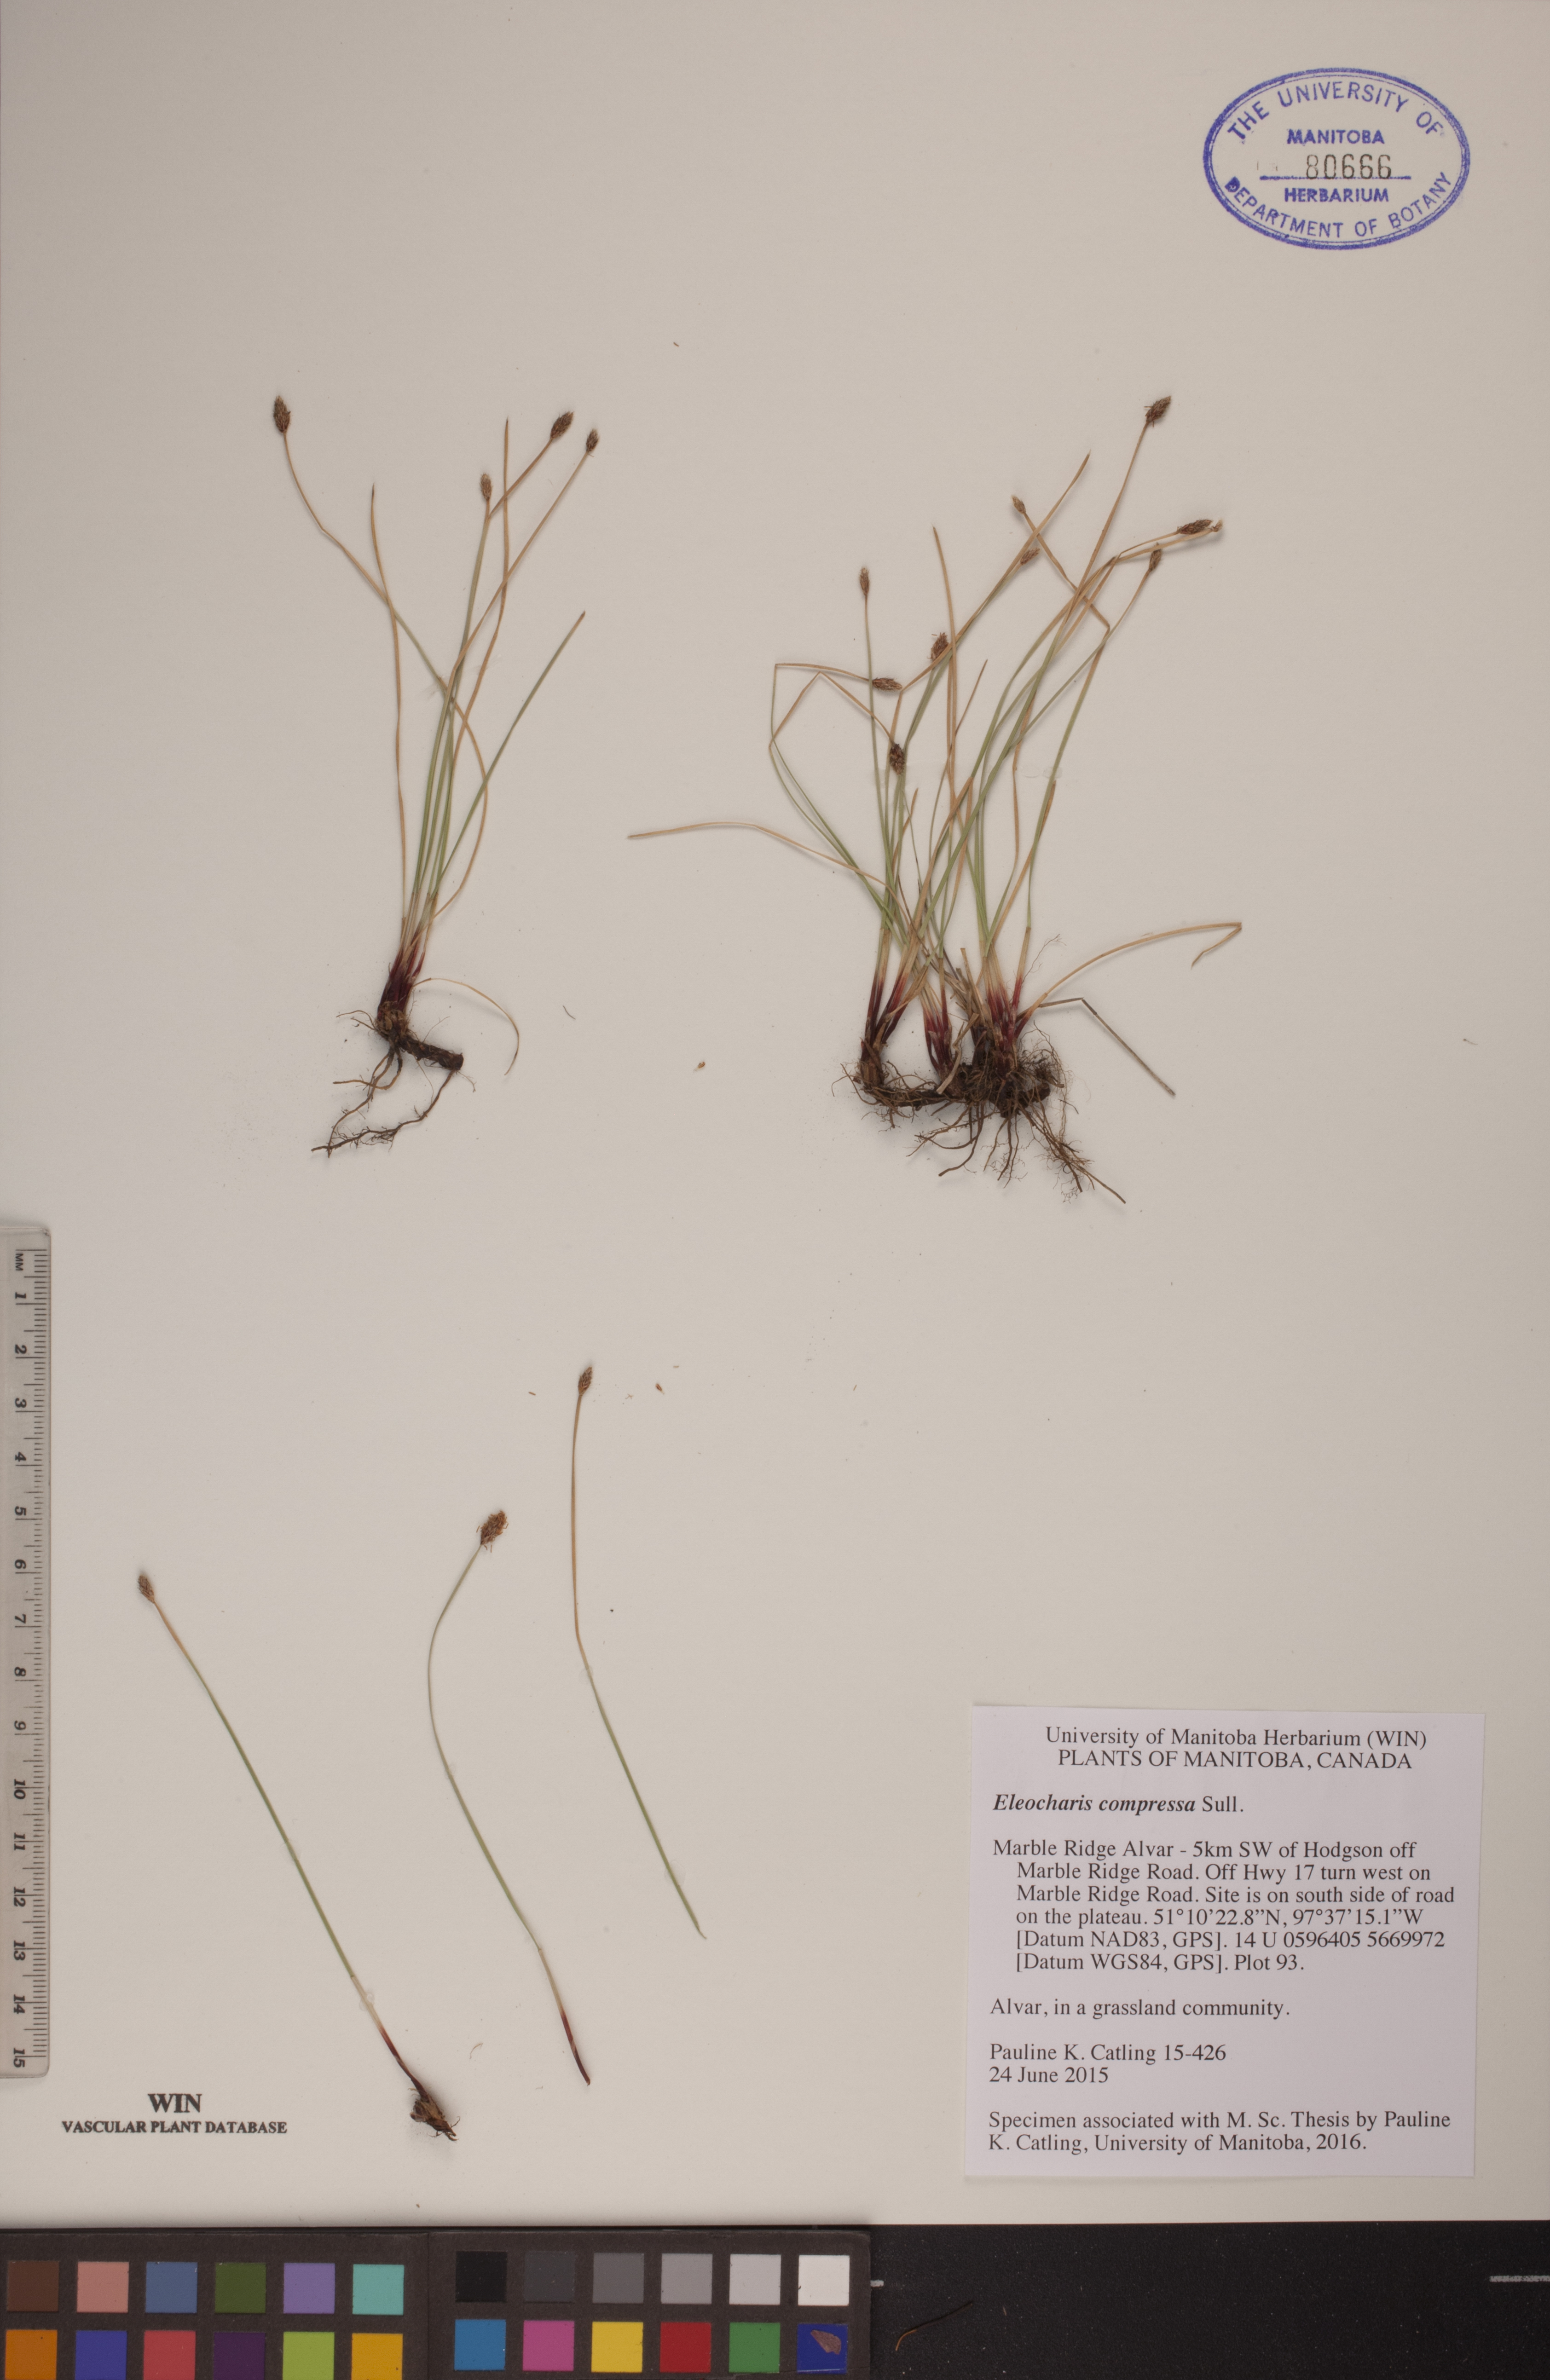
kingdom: Plantae
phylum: Tracheophyta
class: Liliopsida
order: Poales
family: Cyperaceae
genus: Eleocharis
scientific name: Eleocharis compressa
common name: Flat-stem spike-rush
